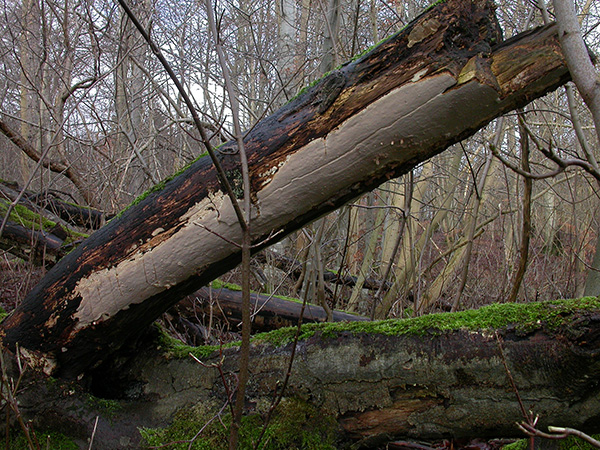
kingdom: Fungi
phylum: Basidiomycota
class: Agaricomycetes
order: Russulales
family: Peniophoraceae
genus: Scytinostroma
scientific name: Scytinostroma hemidichophyticum
